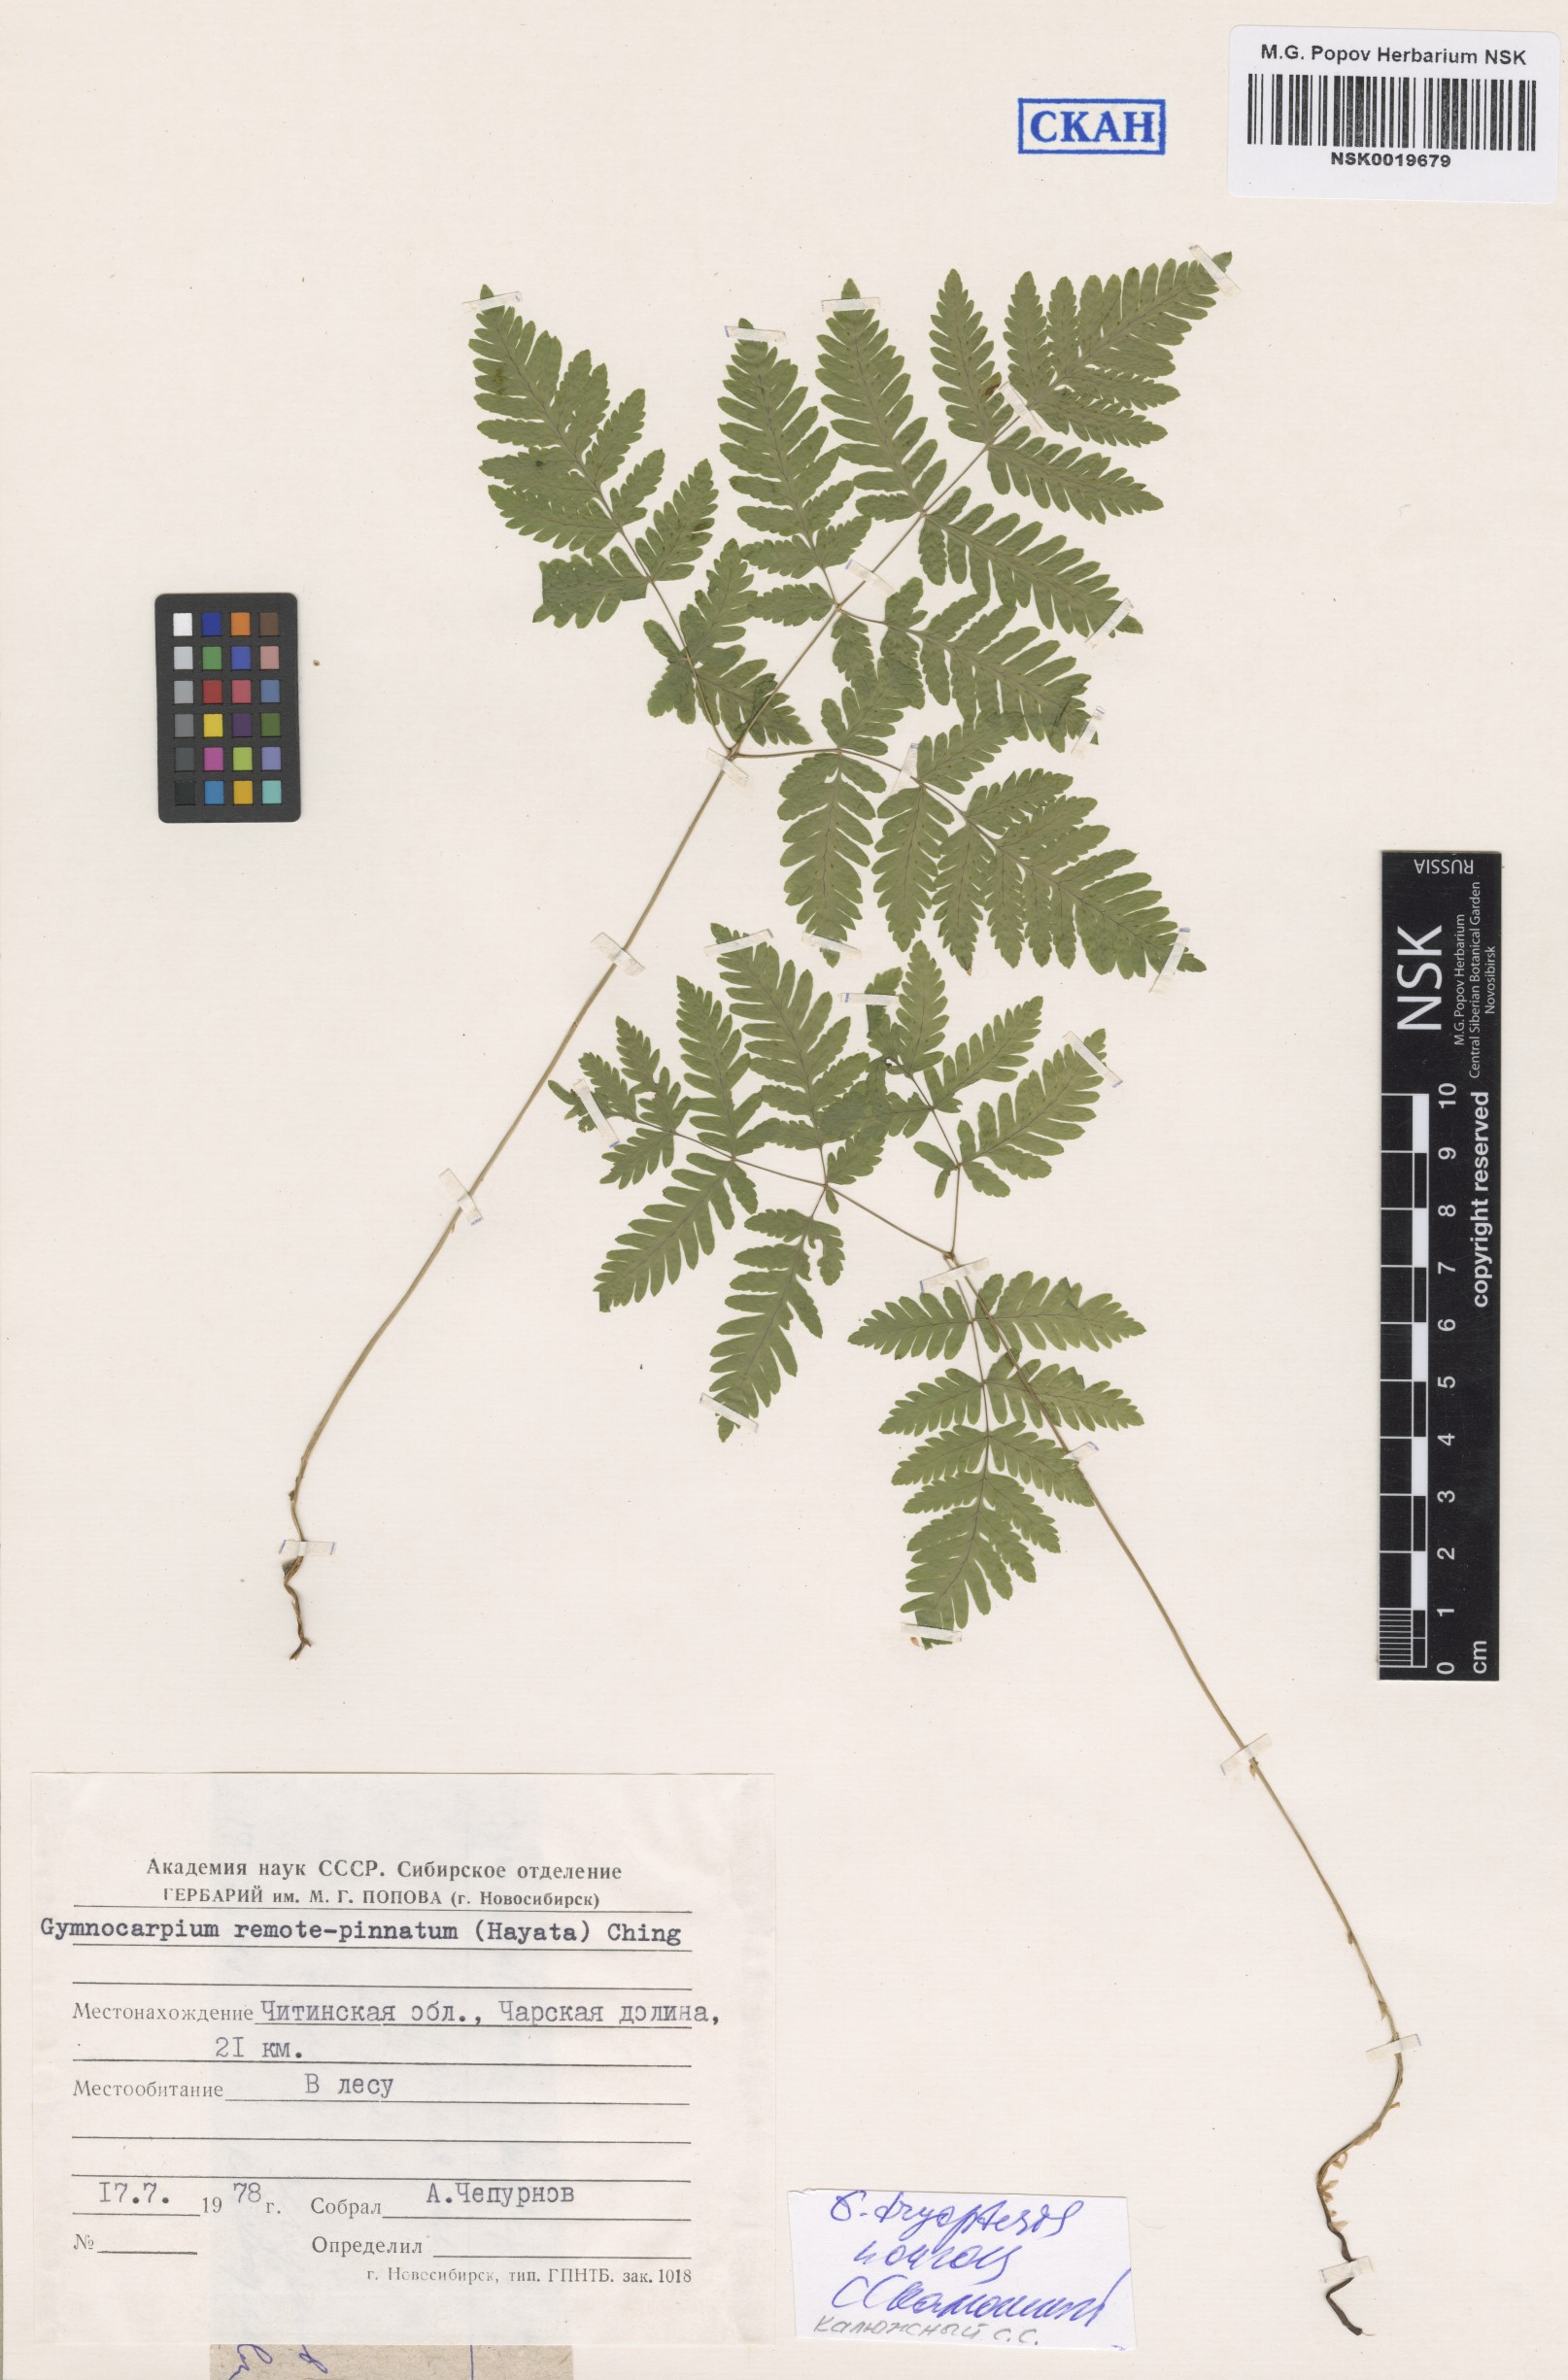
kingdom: Plantae
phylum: Tracheophyta
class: Polypodiopsida
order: Polypodiales
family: Cystopteridaceae
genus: Gymnocarpium
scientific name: Gymnocarpium dryopteris
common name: Oak fern
